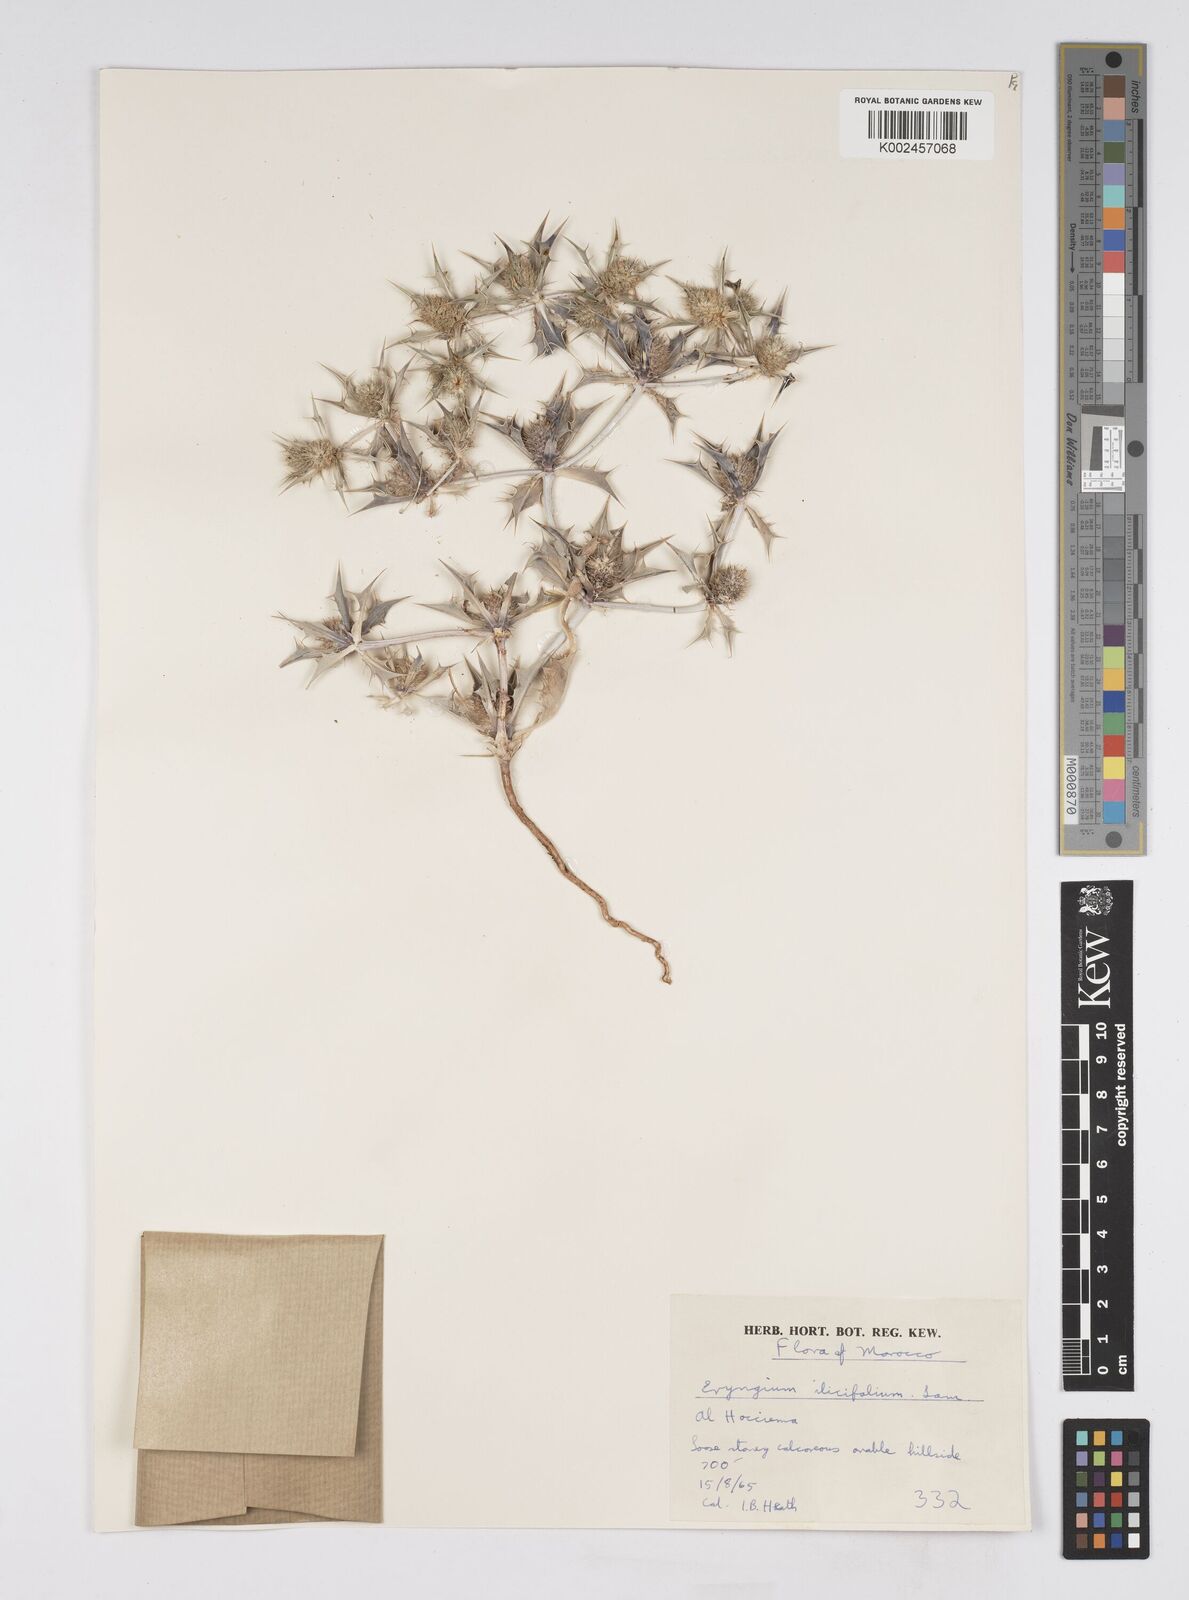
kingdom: Plantae
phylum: Tracheophyta
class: Magnoliopsida
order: Apiales
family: Apiaceae
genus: Eryngium
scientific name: Eryngium
